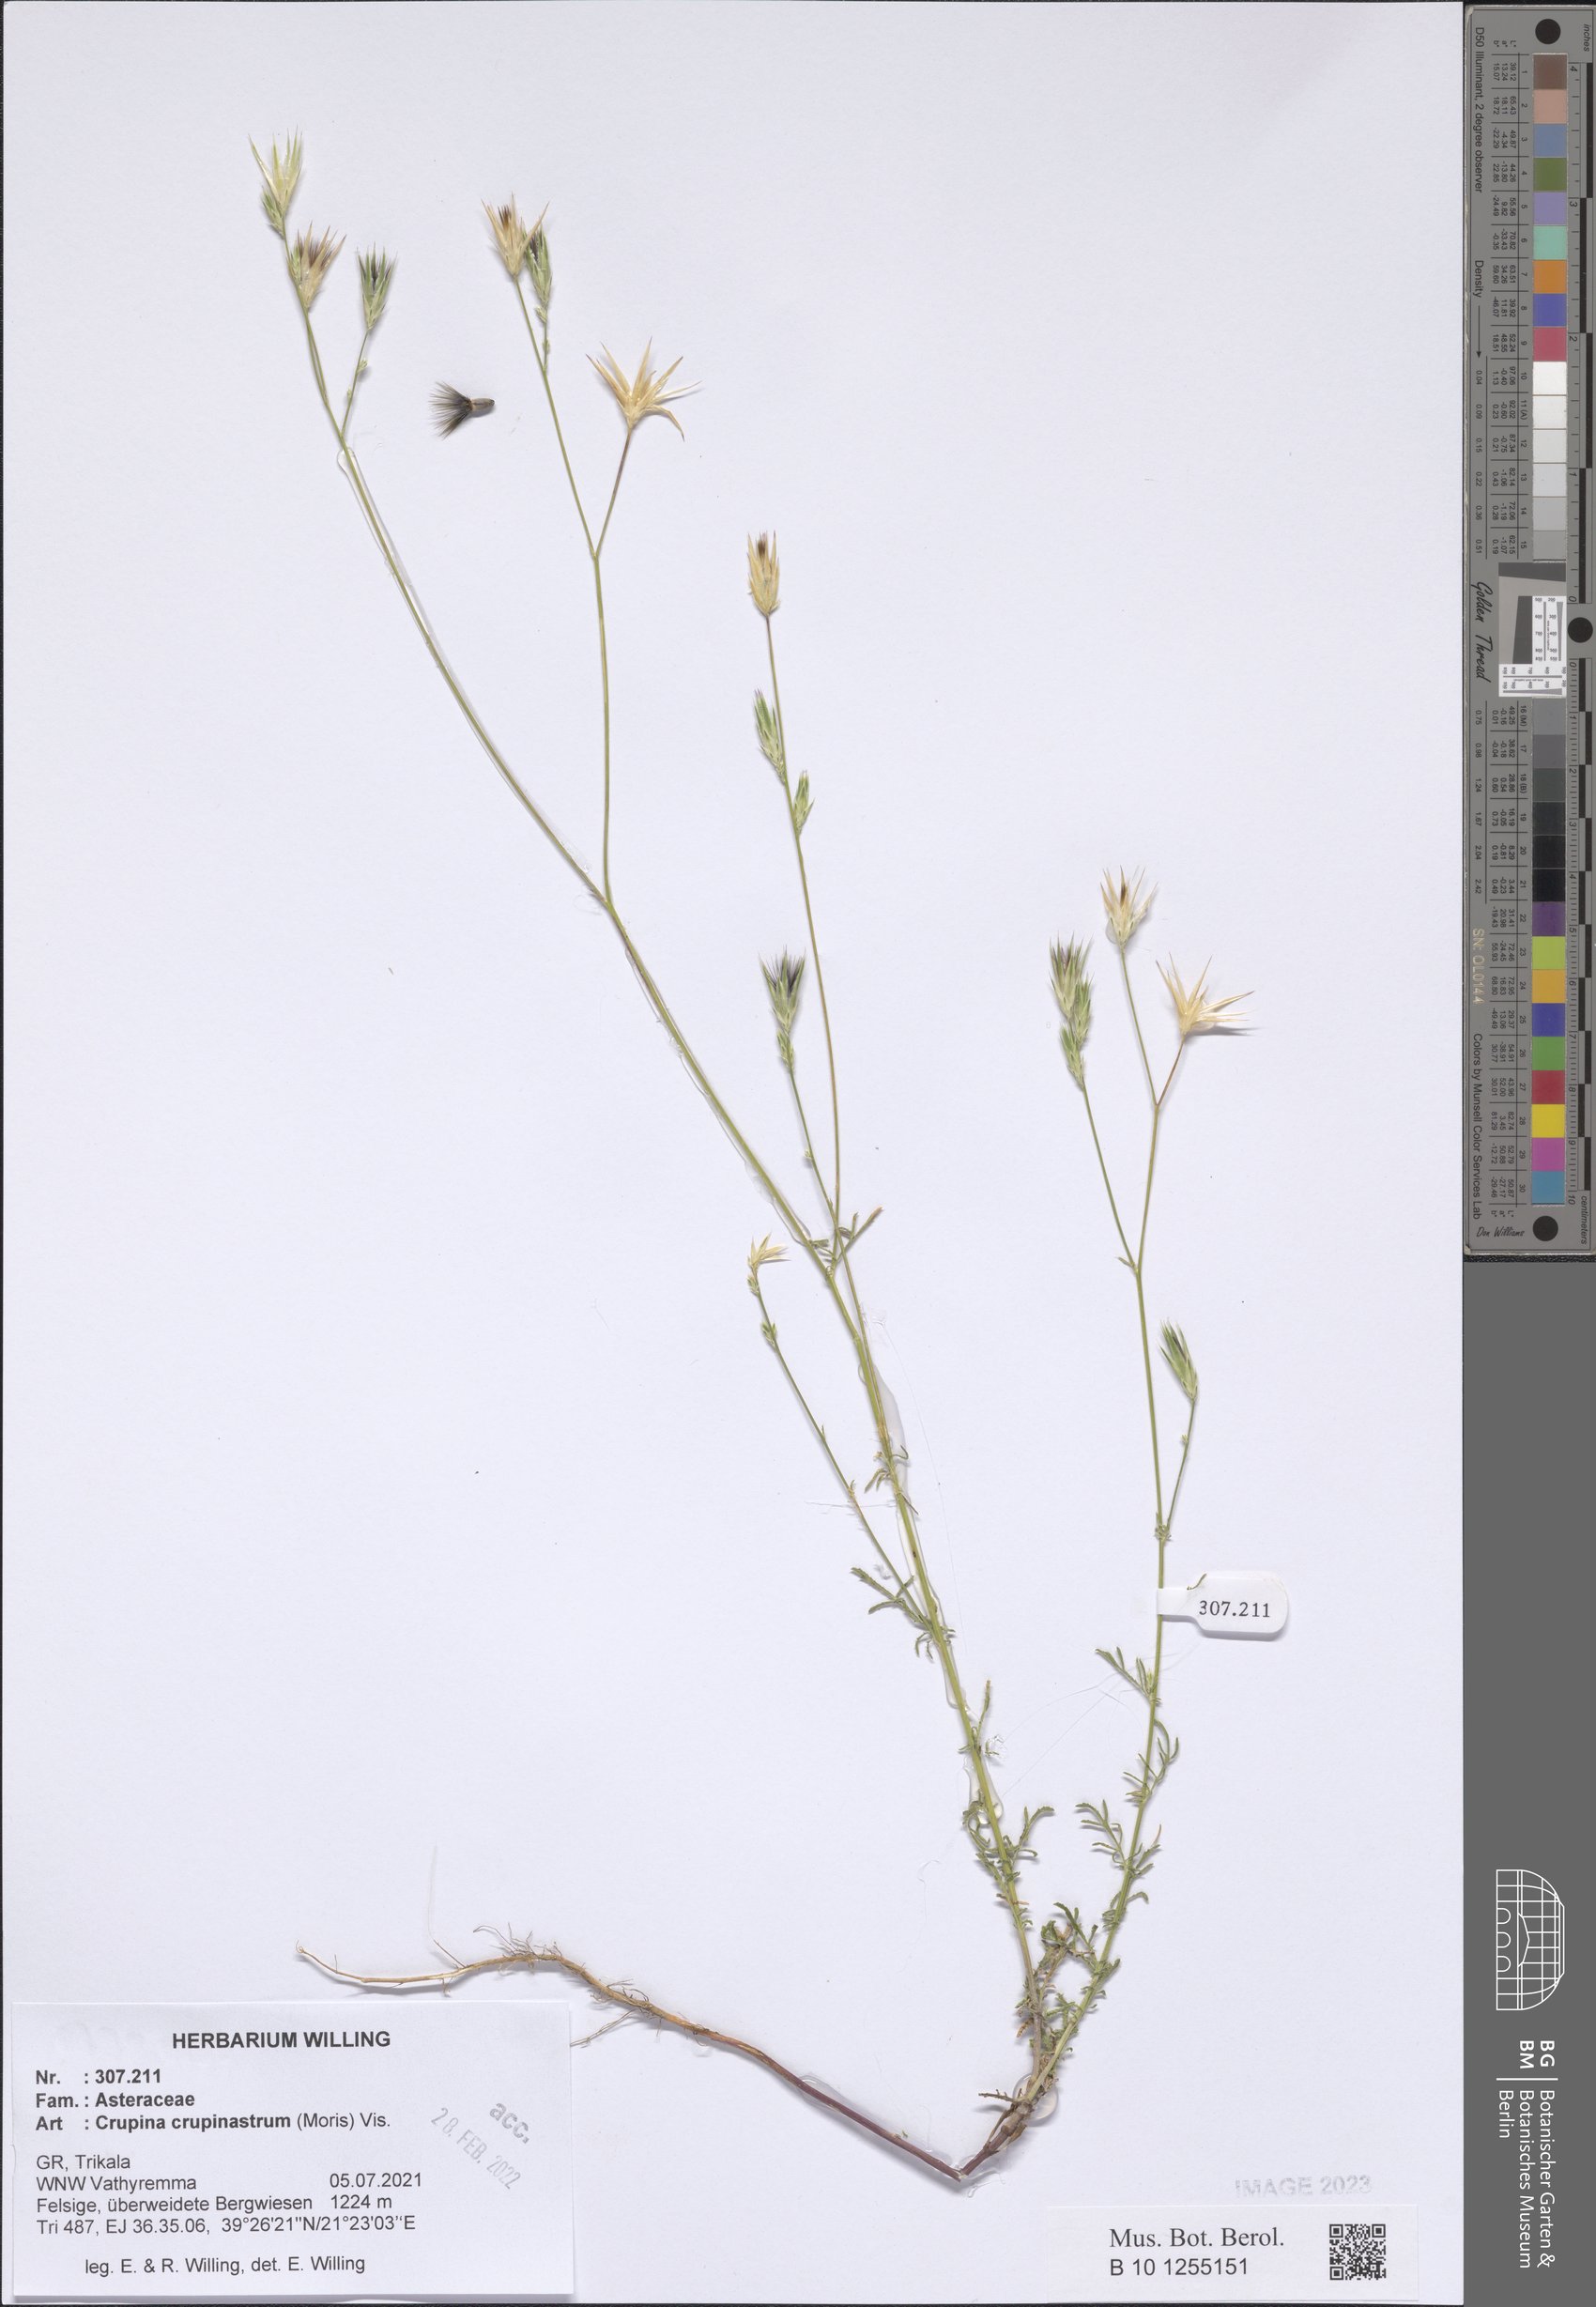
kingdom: Plantae
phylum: Tracheophyta
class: Magnoliopsida
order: Asterales
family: Asteraceae
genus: Crupina
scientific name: Crupina crupinastrum
